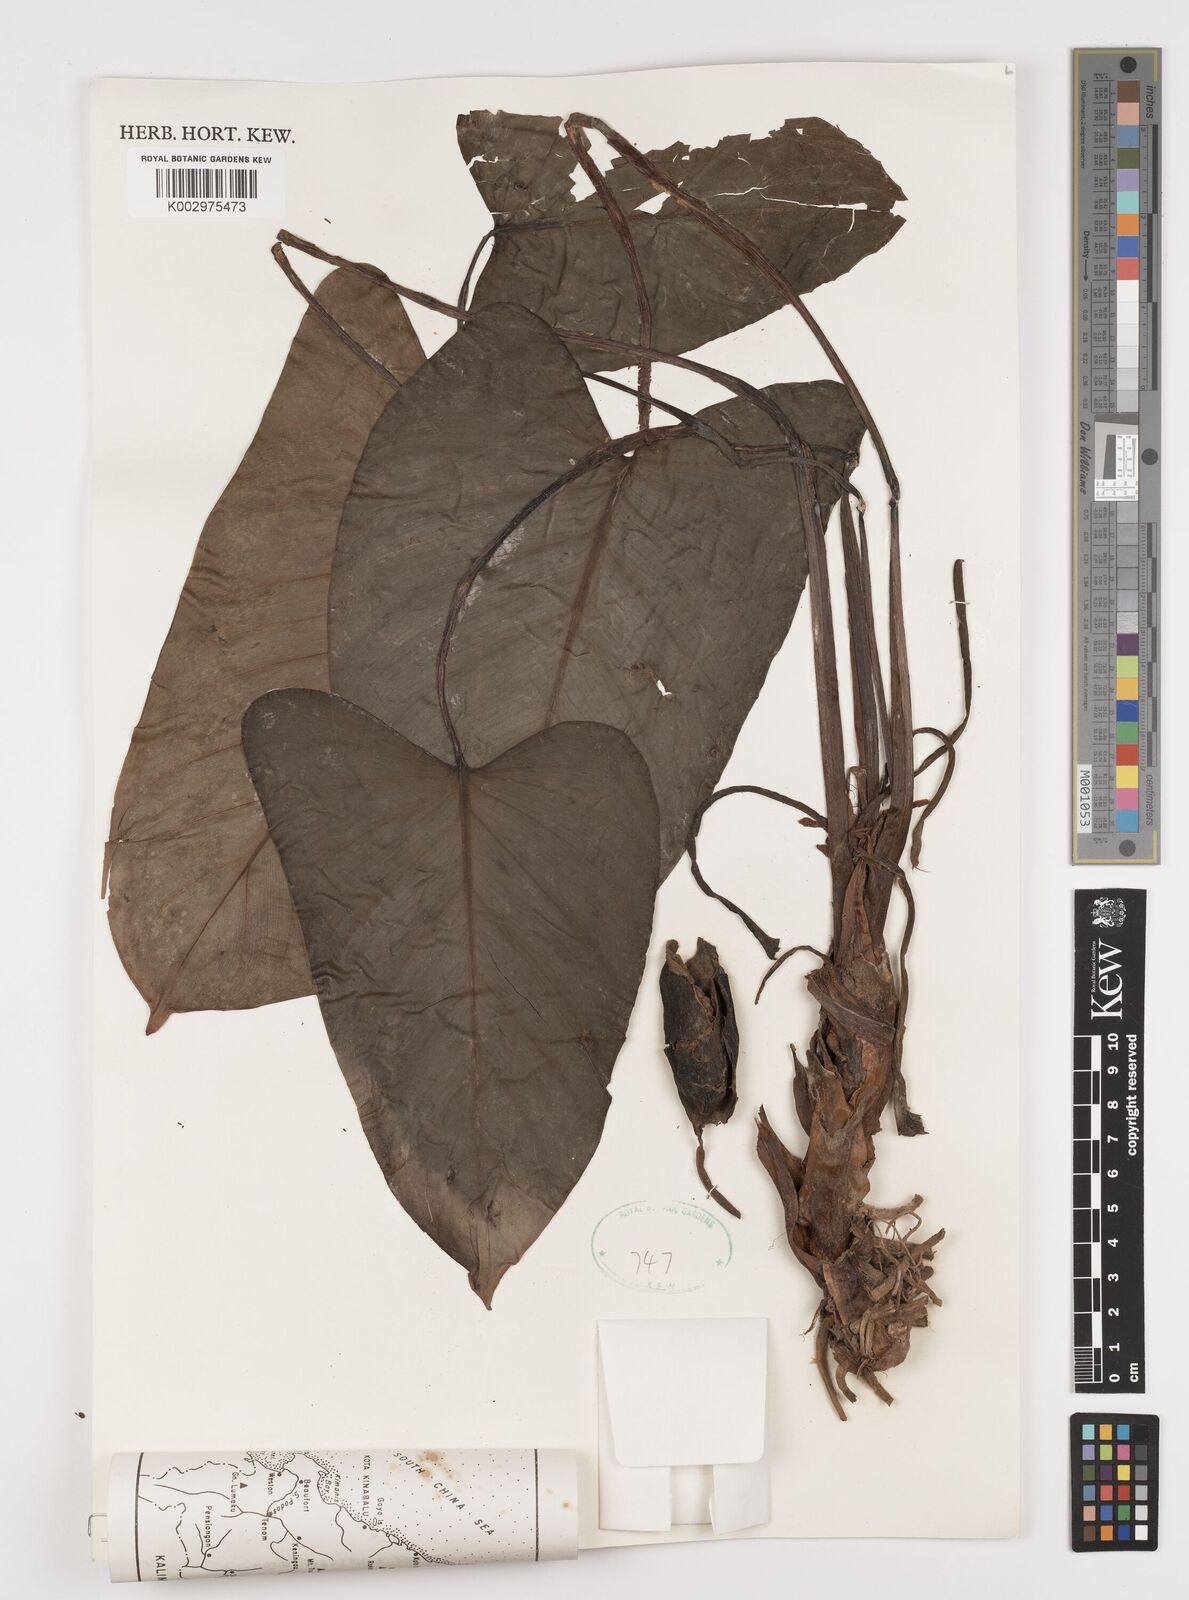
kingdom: Plantae
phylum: Tracheophyta
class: Liliopsida
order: Alismatales
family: Araceae
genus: Homalomena
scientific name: Homalomena humilis
